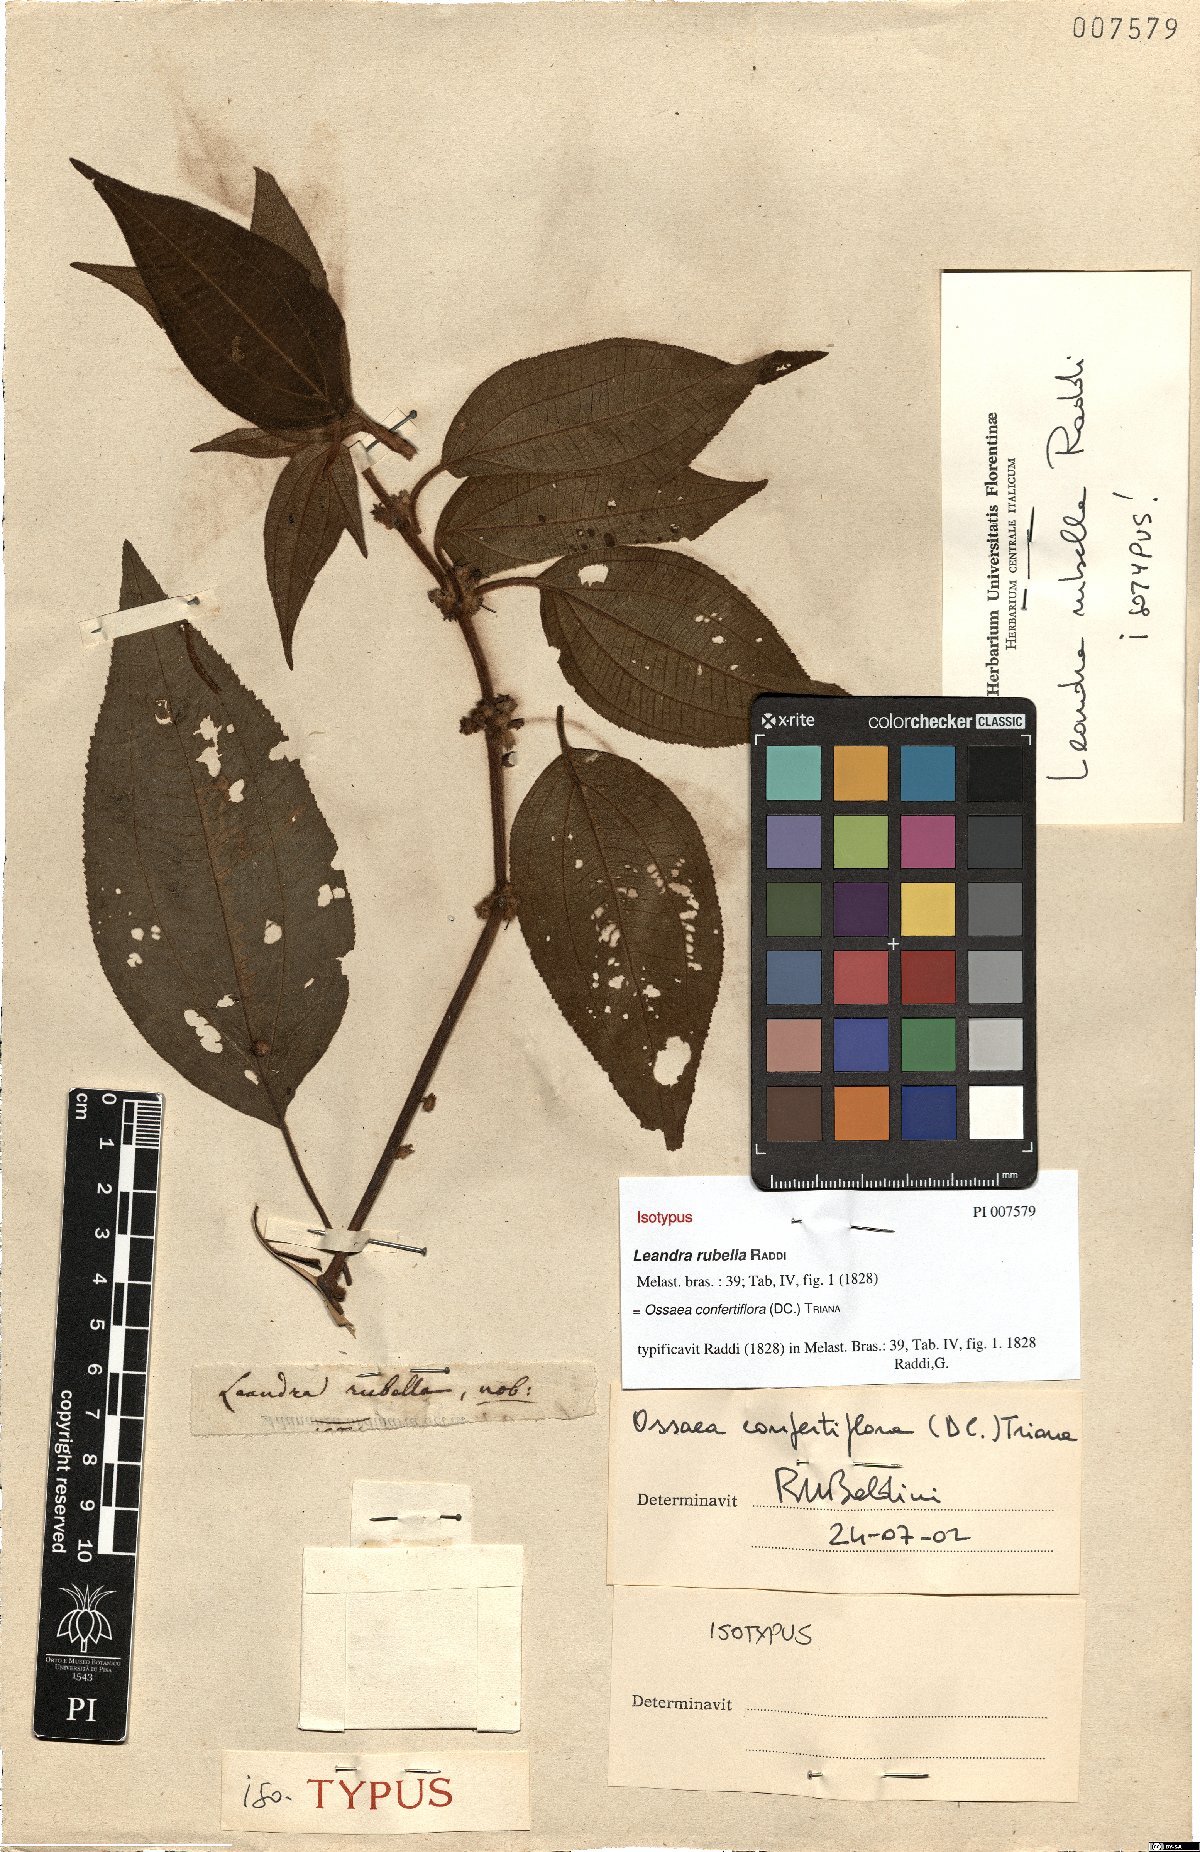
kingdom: Plantae
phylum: Tracheophyta
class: Magnoliopsida
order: Myrtales
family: Melastomataceae
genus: Miconia
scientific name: Miconia rubella
